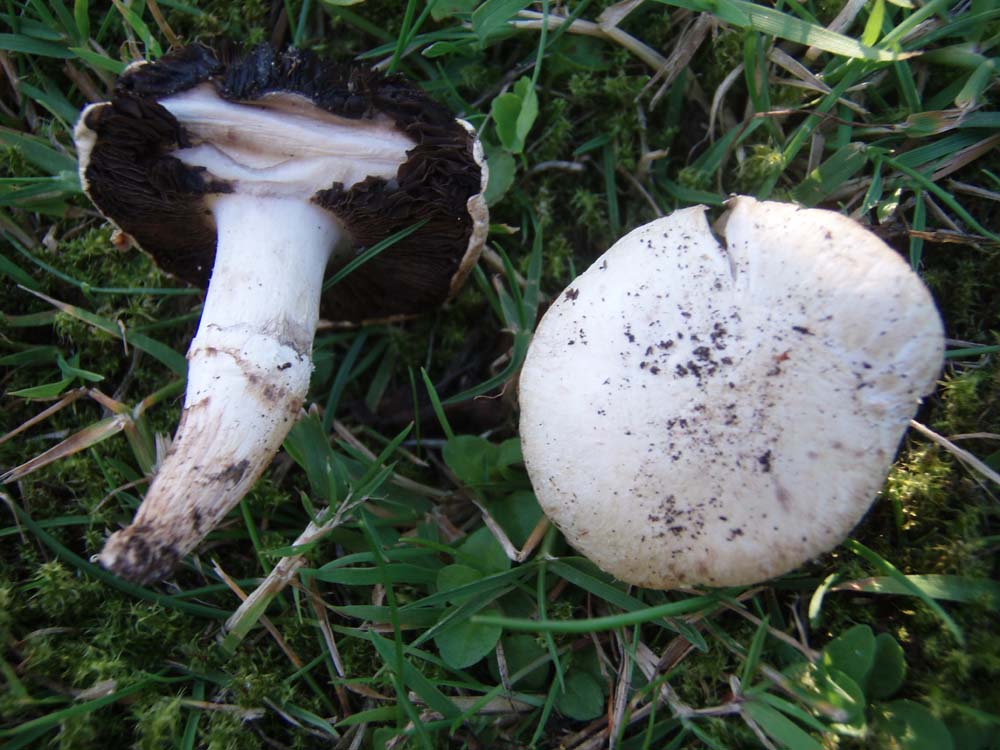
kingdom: Fungi
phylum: Basidiomycota
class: Agaricomycetes
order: Agaricales
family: Agaricaceae
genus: Agaricus
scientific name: Agaricus campestris
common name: mark-champignon
